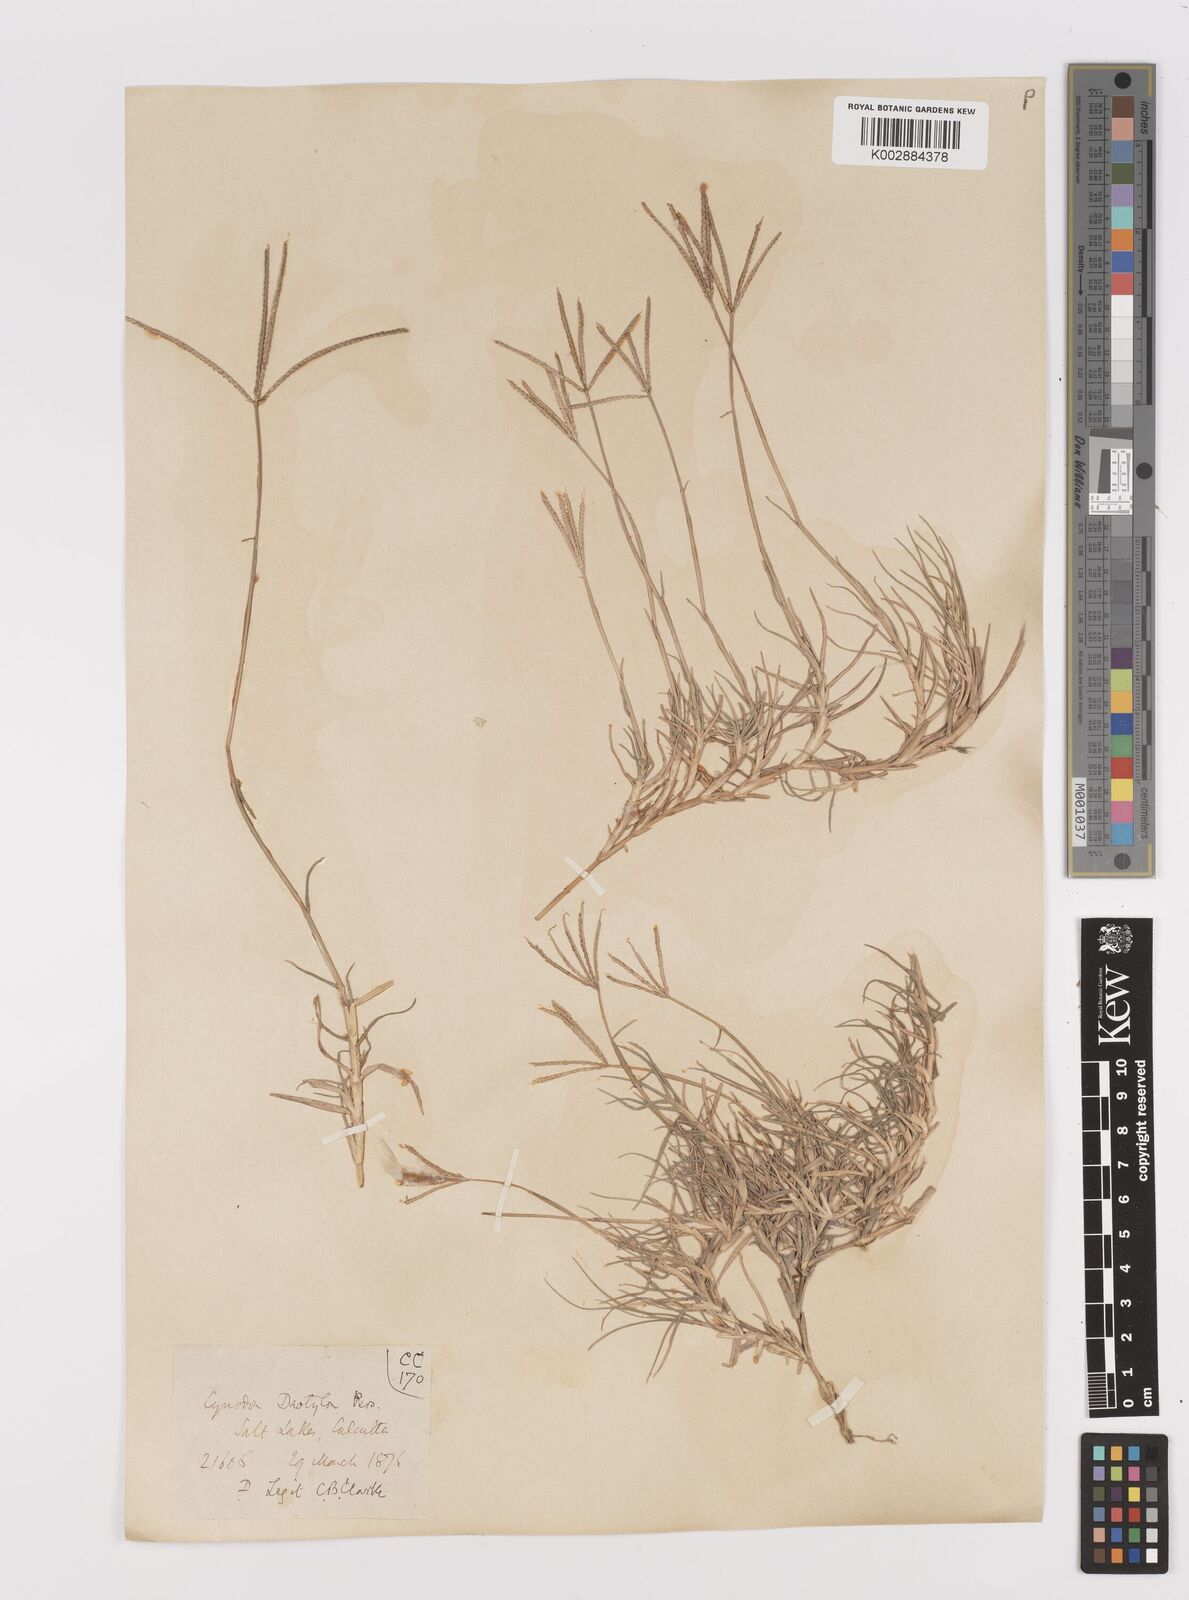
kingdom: Plantae
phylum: Tracheophyta
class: Liliopsida
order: Poales
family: Poaceae
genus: Cynodon
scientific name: Cynodon dactylon
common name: Bermuda grass
